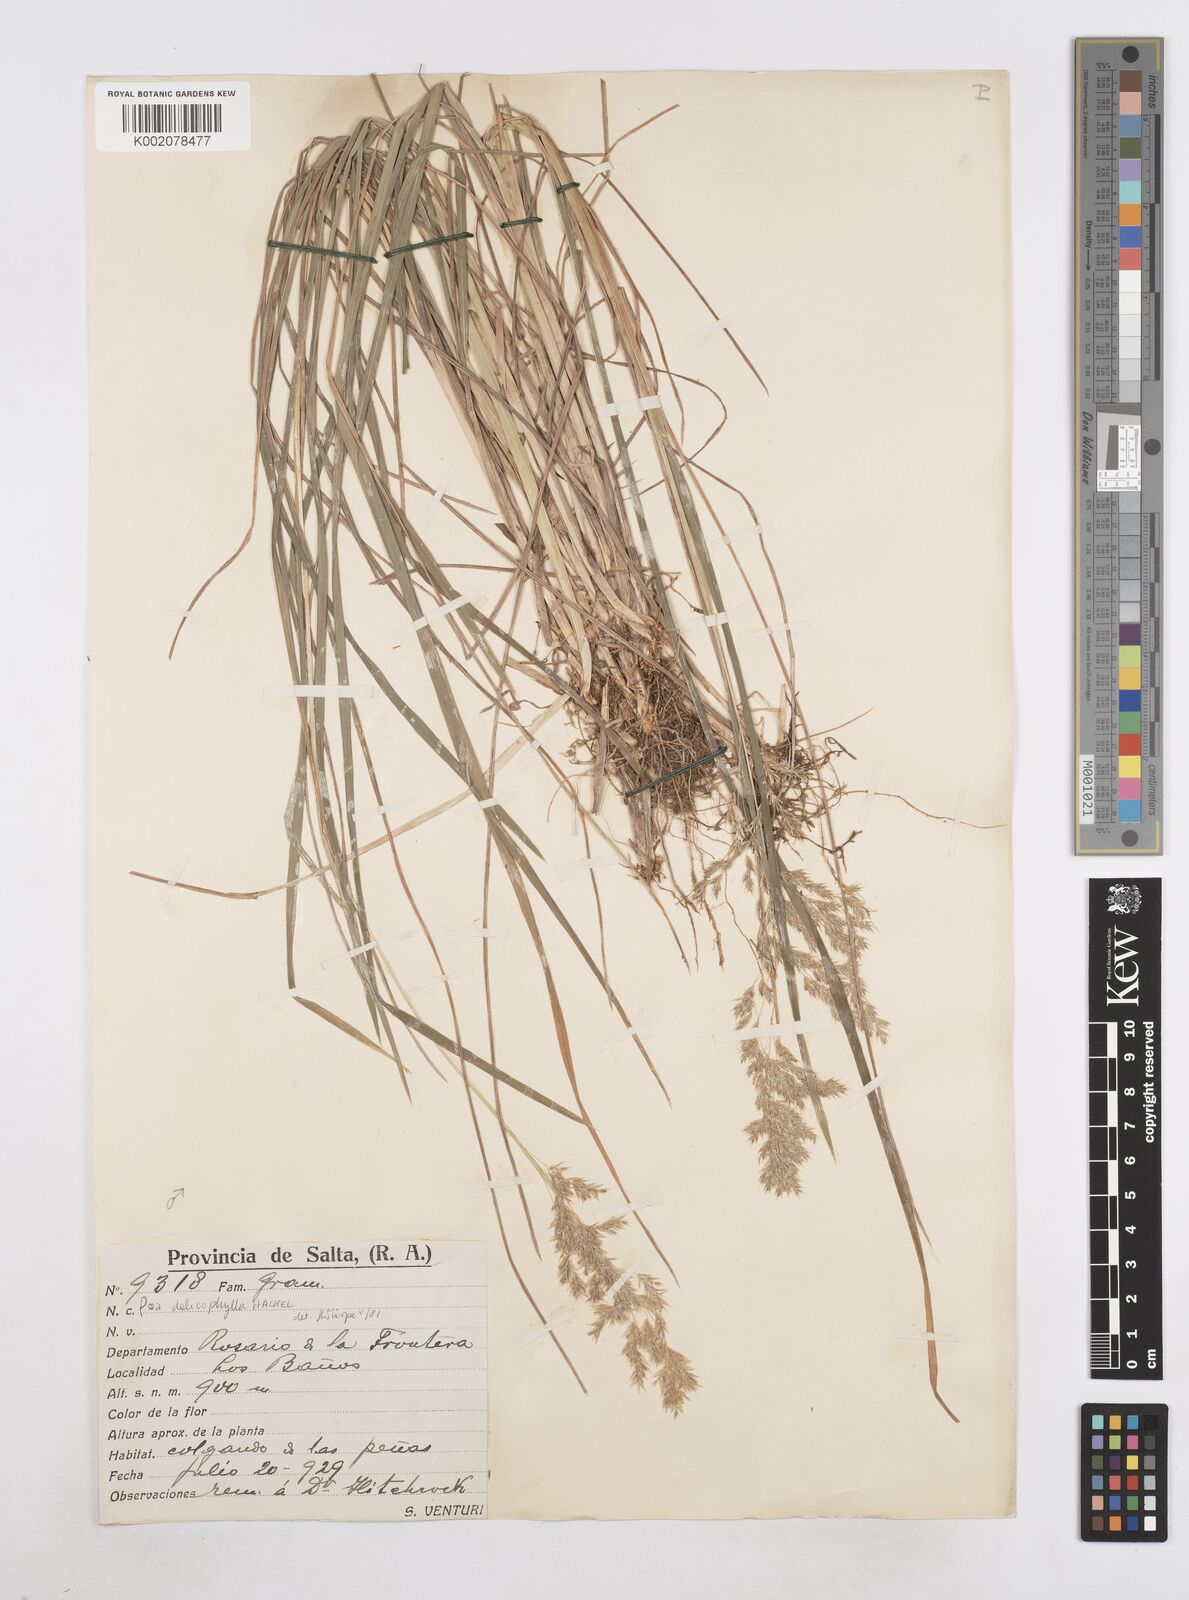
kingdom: Plantae
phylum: Tracheophyta
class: Liliopsida
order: Poales
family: Poaceae
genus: Poa
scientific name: Poa dolichophylla
